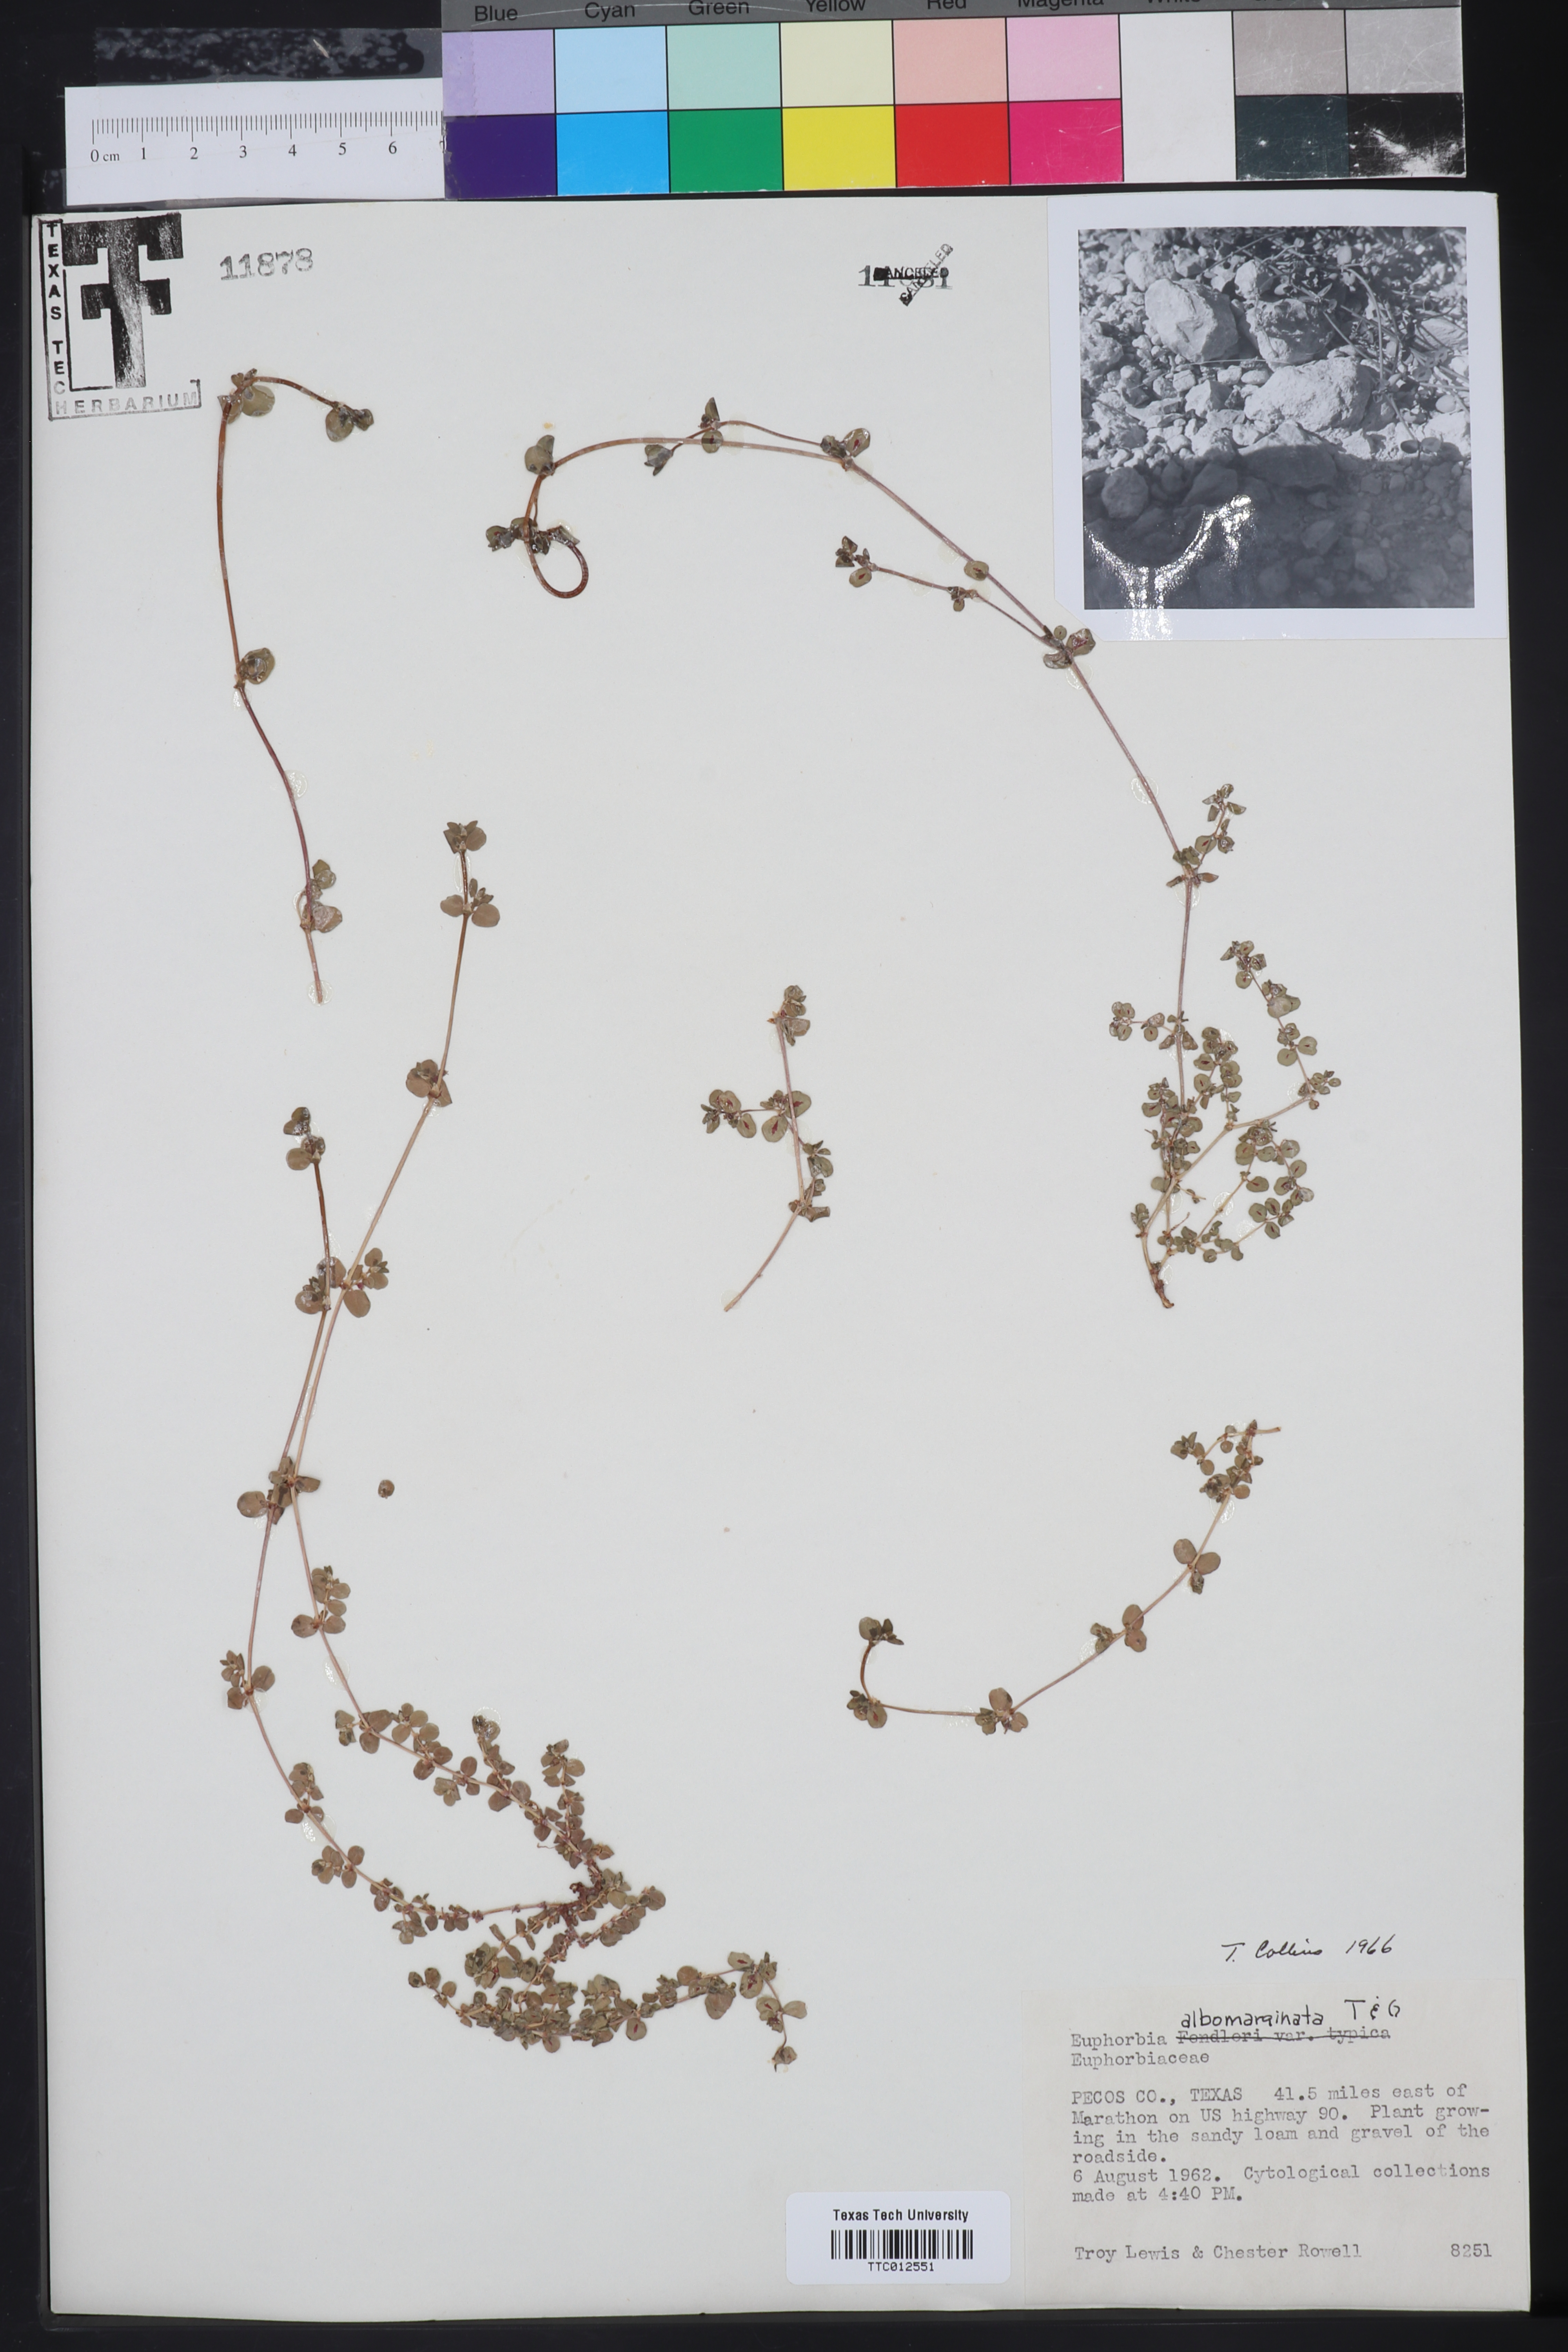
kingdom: Plantae
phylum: Tracheophyta
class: Magnoliopsida
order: Malpighiales
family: Euphorbiaceae
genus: Euphorbia
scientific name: Euphorbia albomarginata
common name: Whitemargin sandmat
